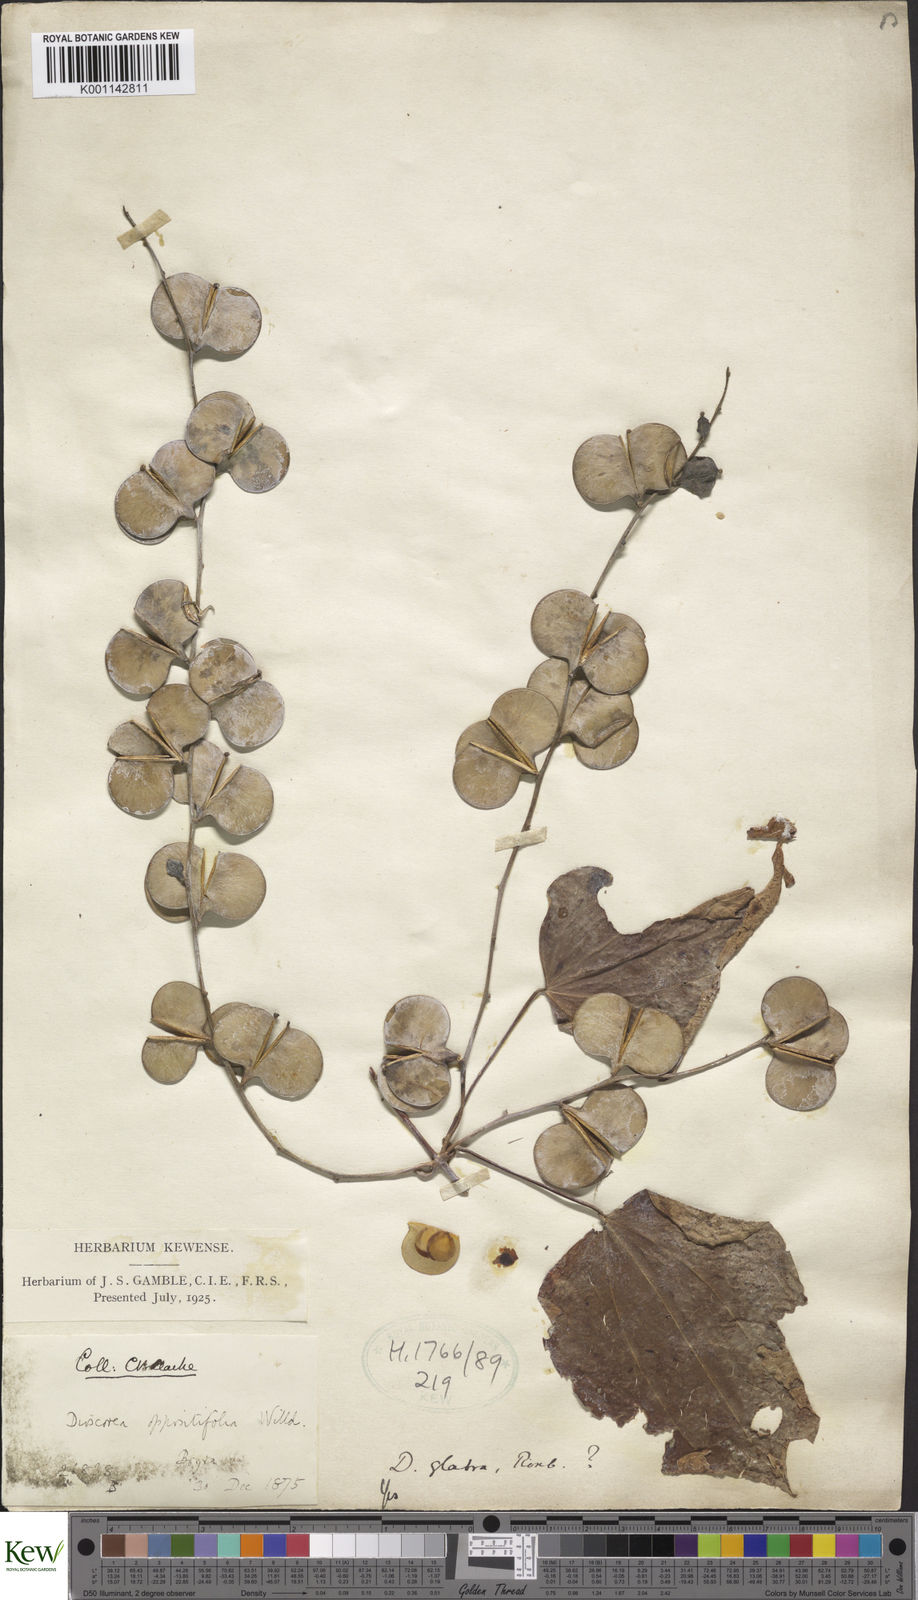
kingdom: Plantae
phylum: Tracheophyta
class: Liliopsida
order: Dioscoreales
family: Dioscoreaceae
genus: Dioscorea
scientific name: Dioscorea glabra
